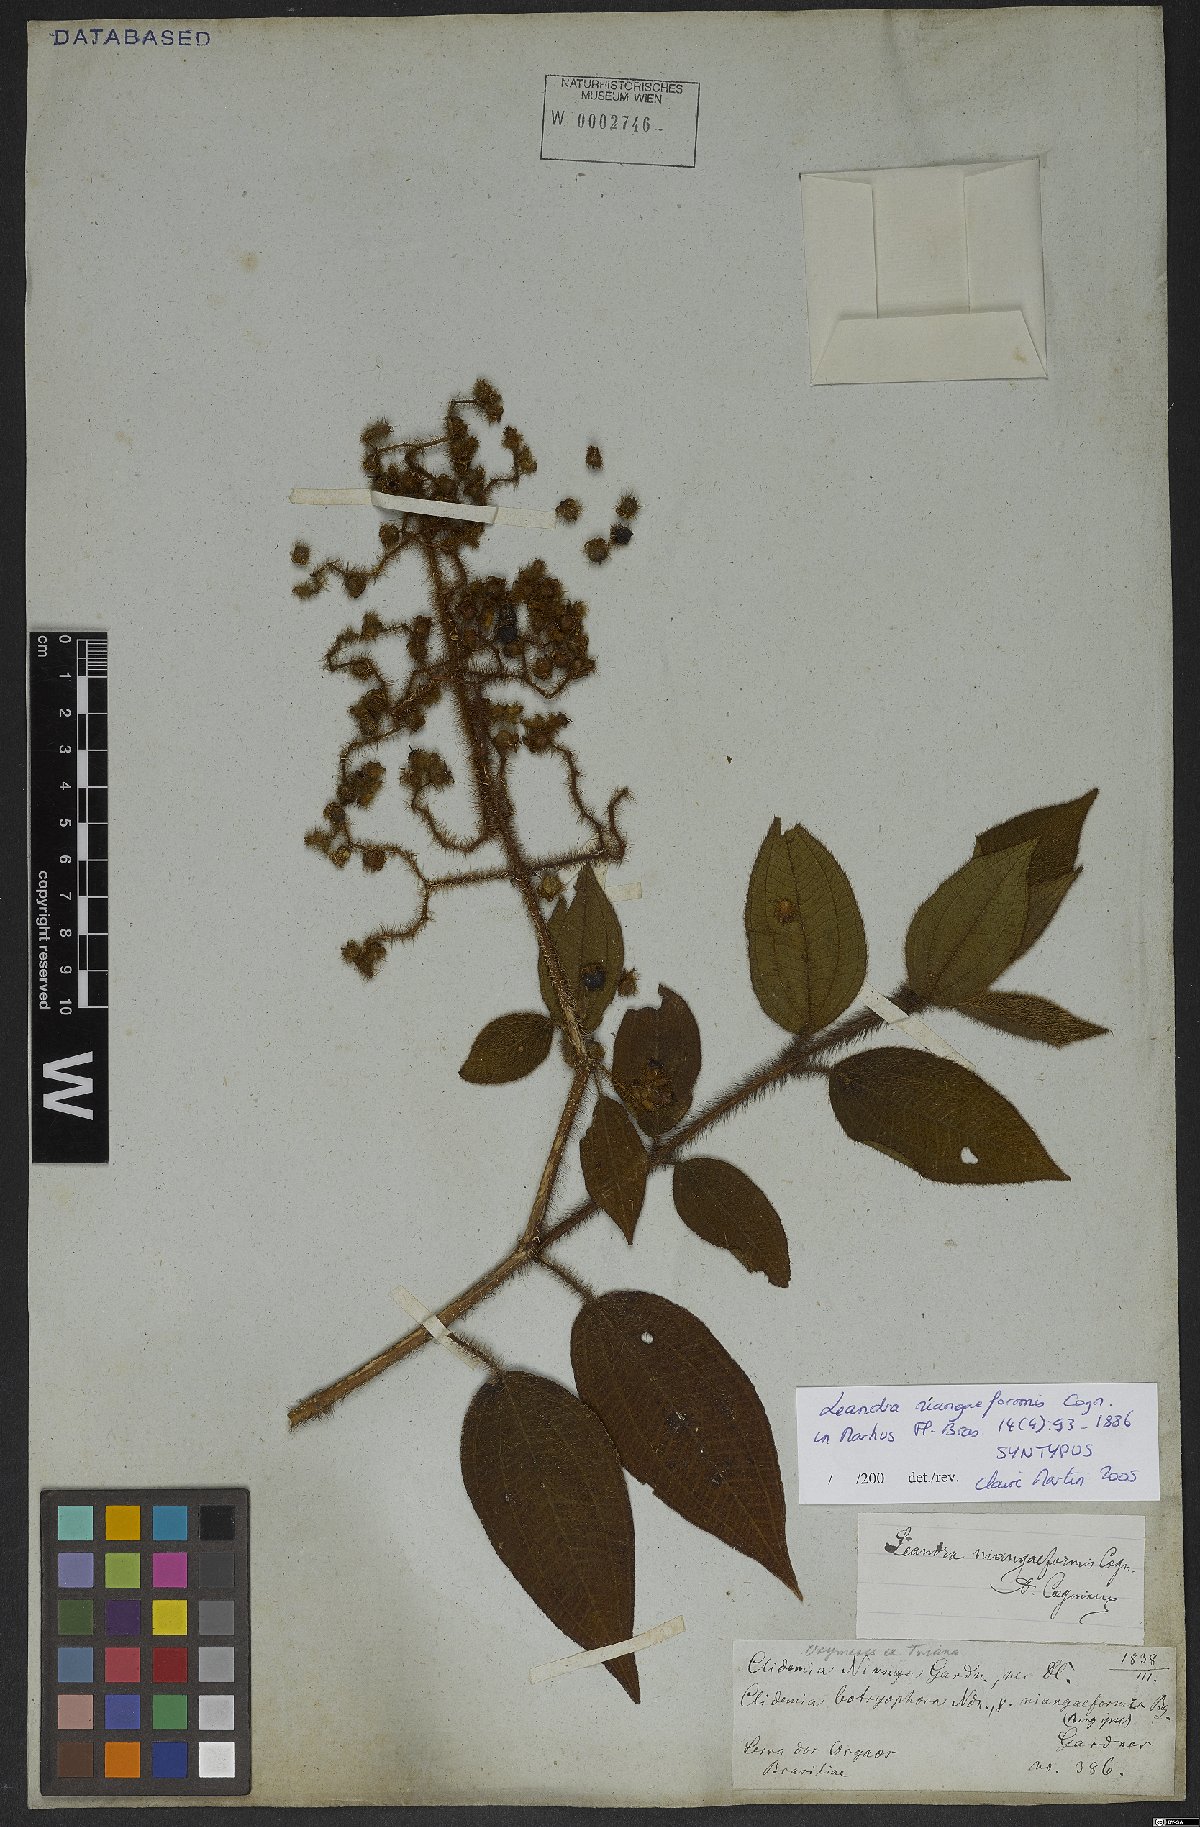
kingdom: Plantae
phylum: Tracheophyta
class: Magnoliopsida
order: Myrtales
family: Melastomataceae
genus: Miconia
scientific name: Miconia niangaeformis
